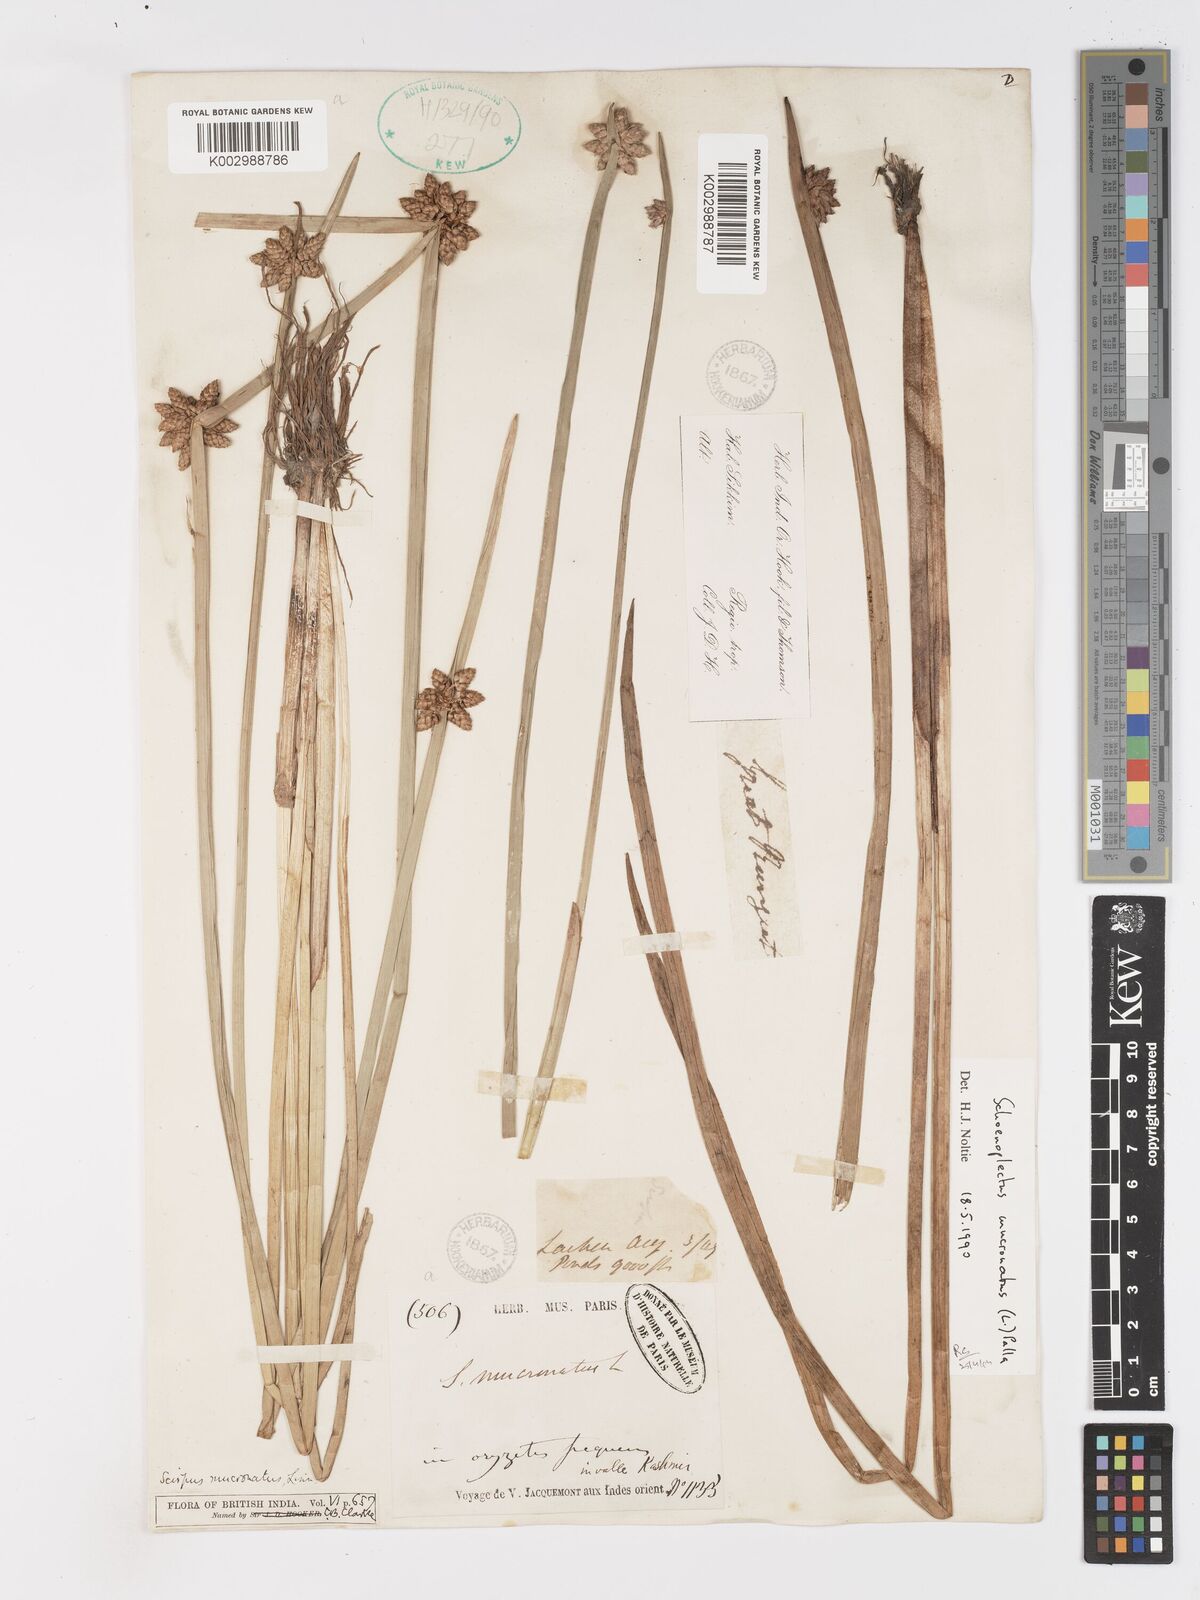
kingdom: Plantae
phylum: Tracheophyta
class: Liliopsida
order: Poales
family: Cyperaceae
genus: Schoenoplectiella
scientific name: Schoenoplectiella mucronata
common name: Bog bulrush
